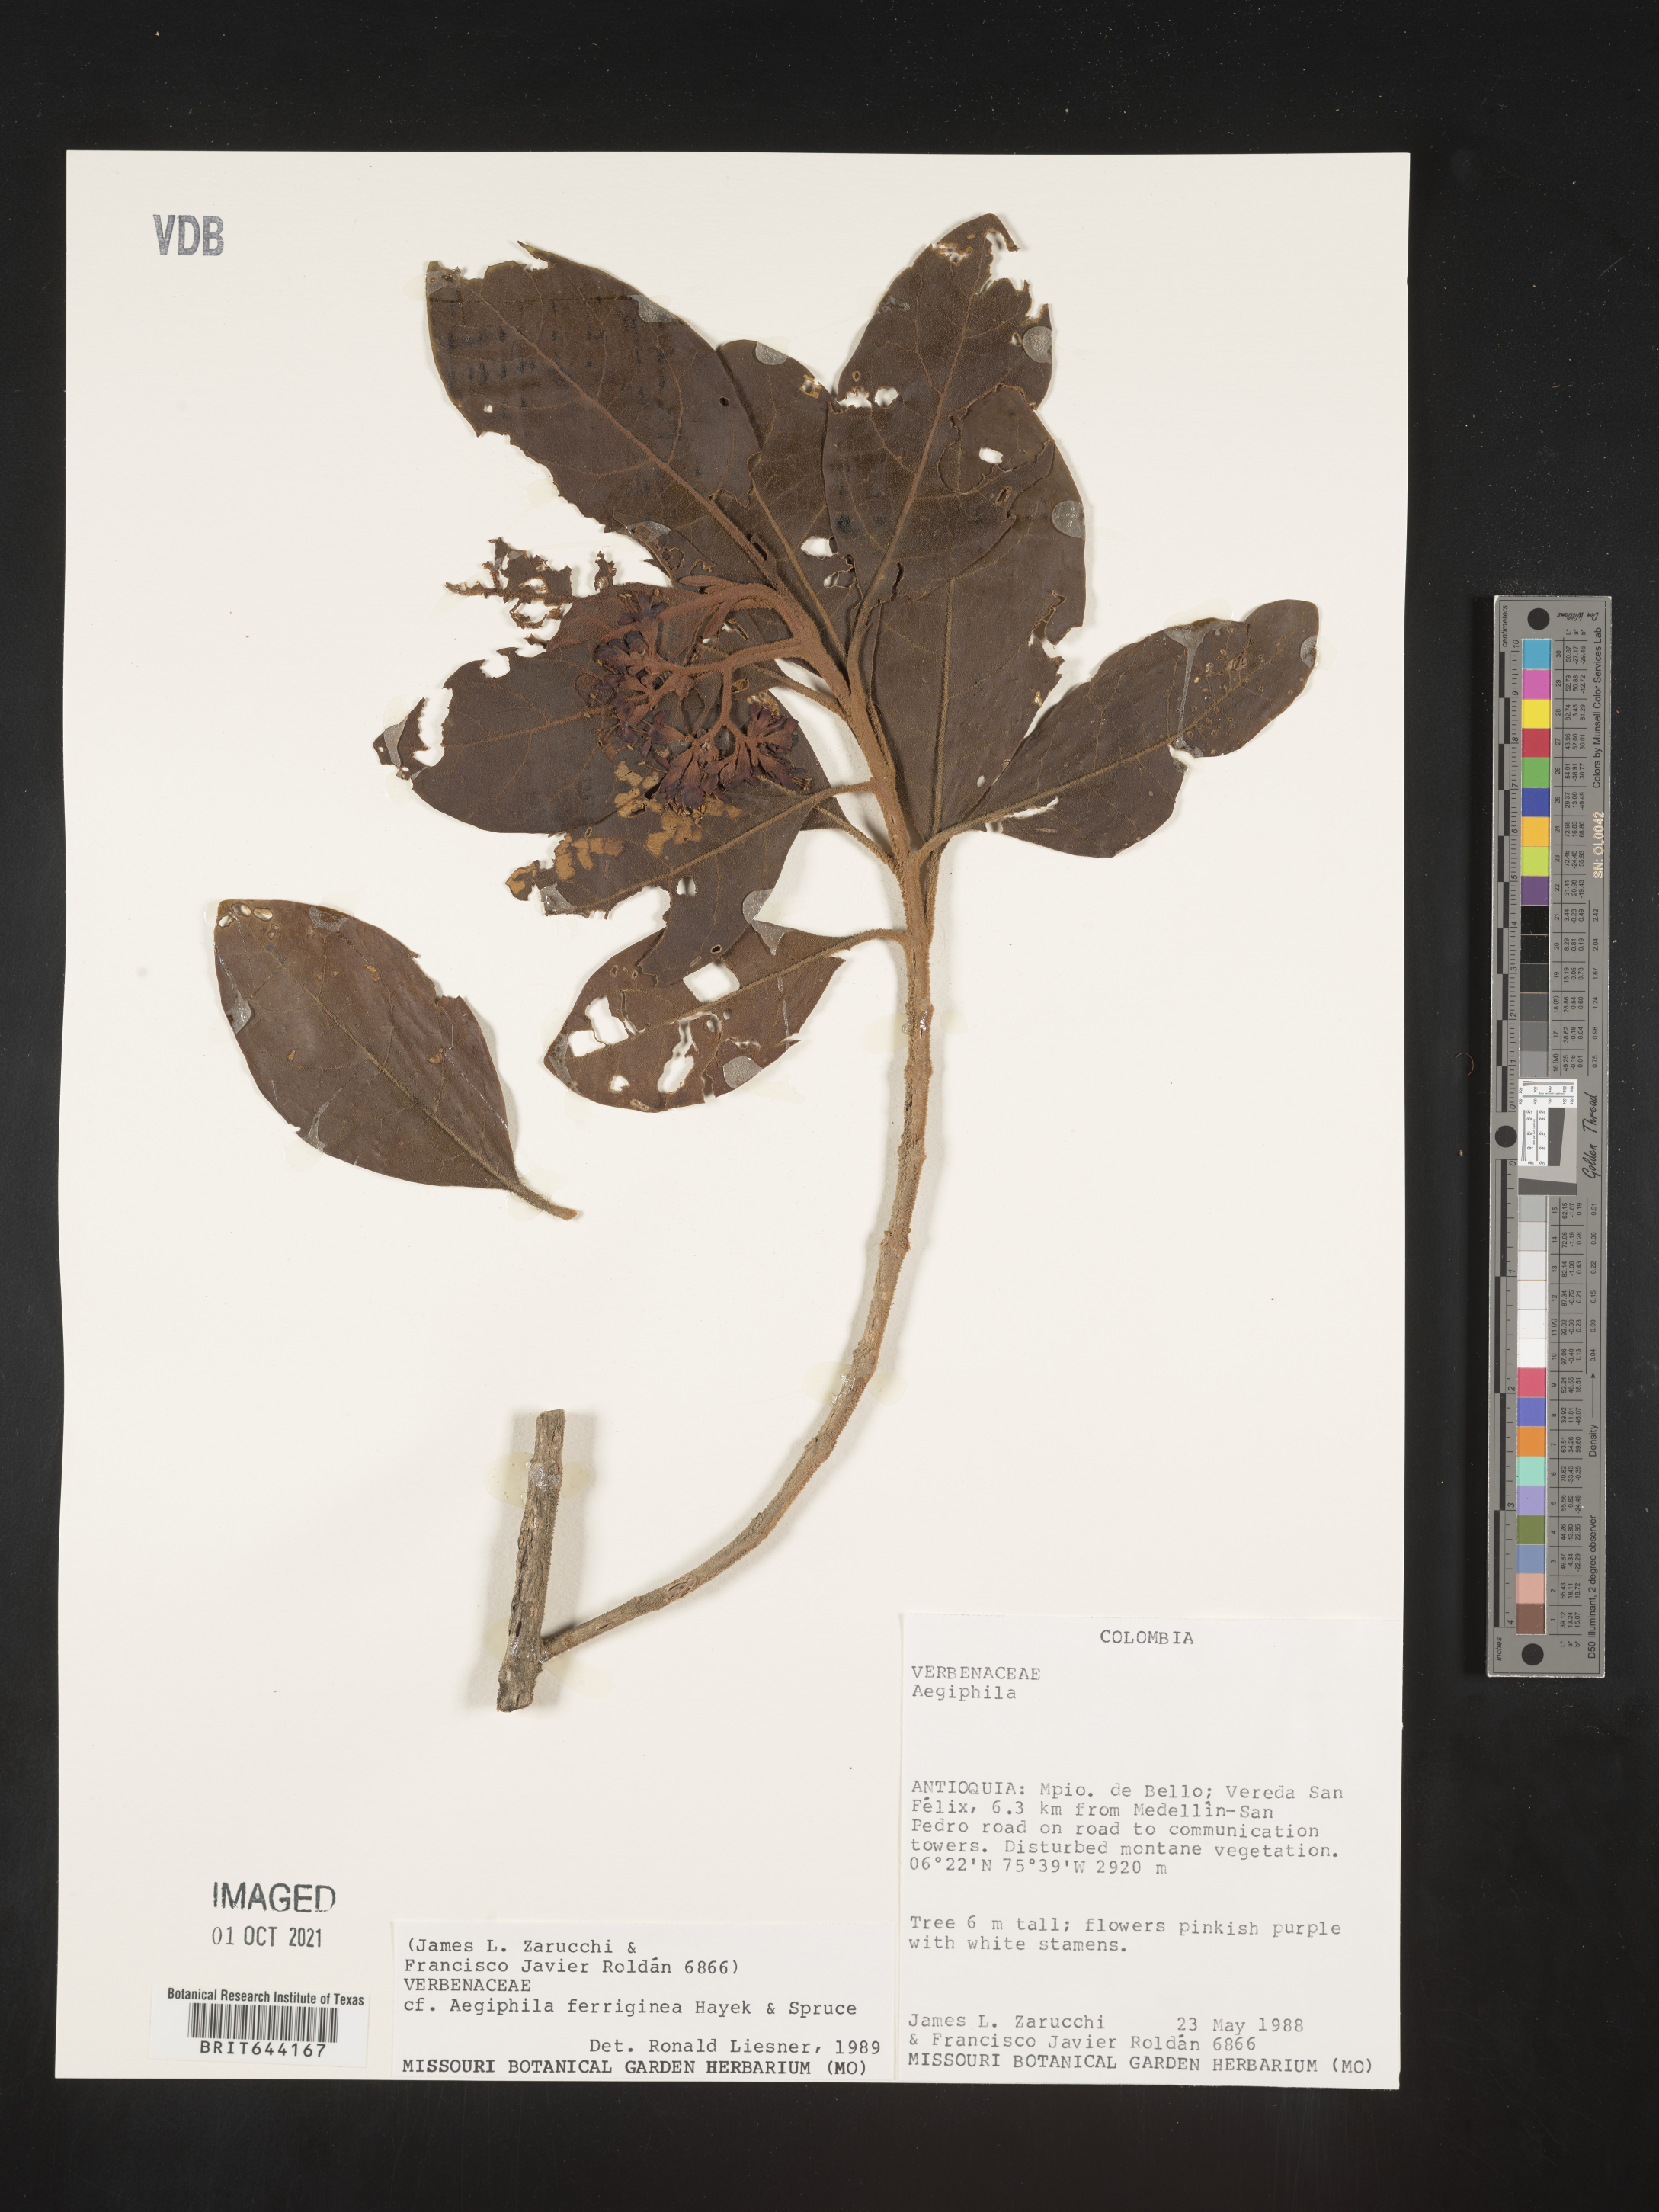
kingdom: Plantae
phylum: Tracheophyta
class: Magnoliopsida
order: Lamiales
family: Lamiaceae
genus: Aegiphila
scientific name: Aegiphila
